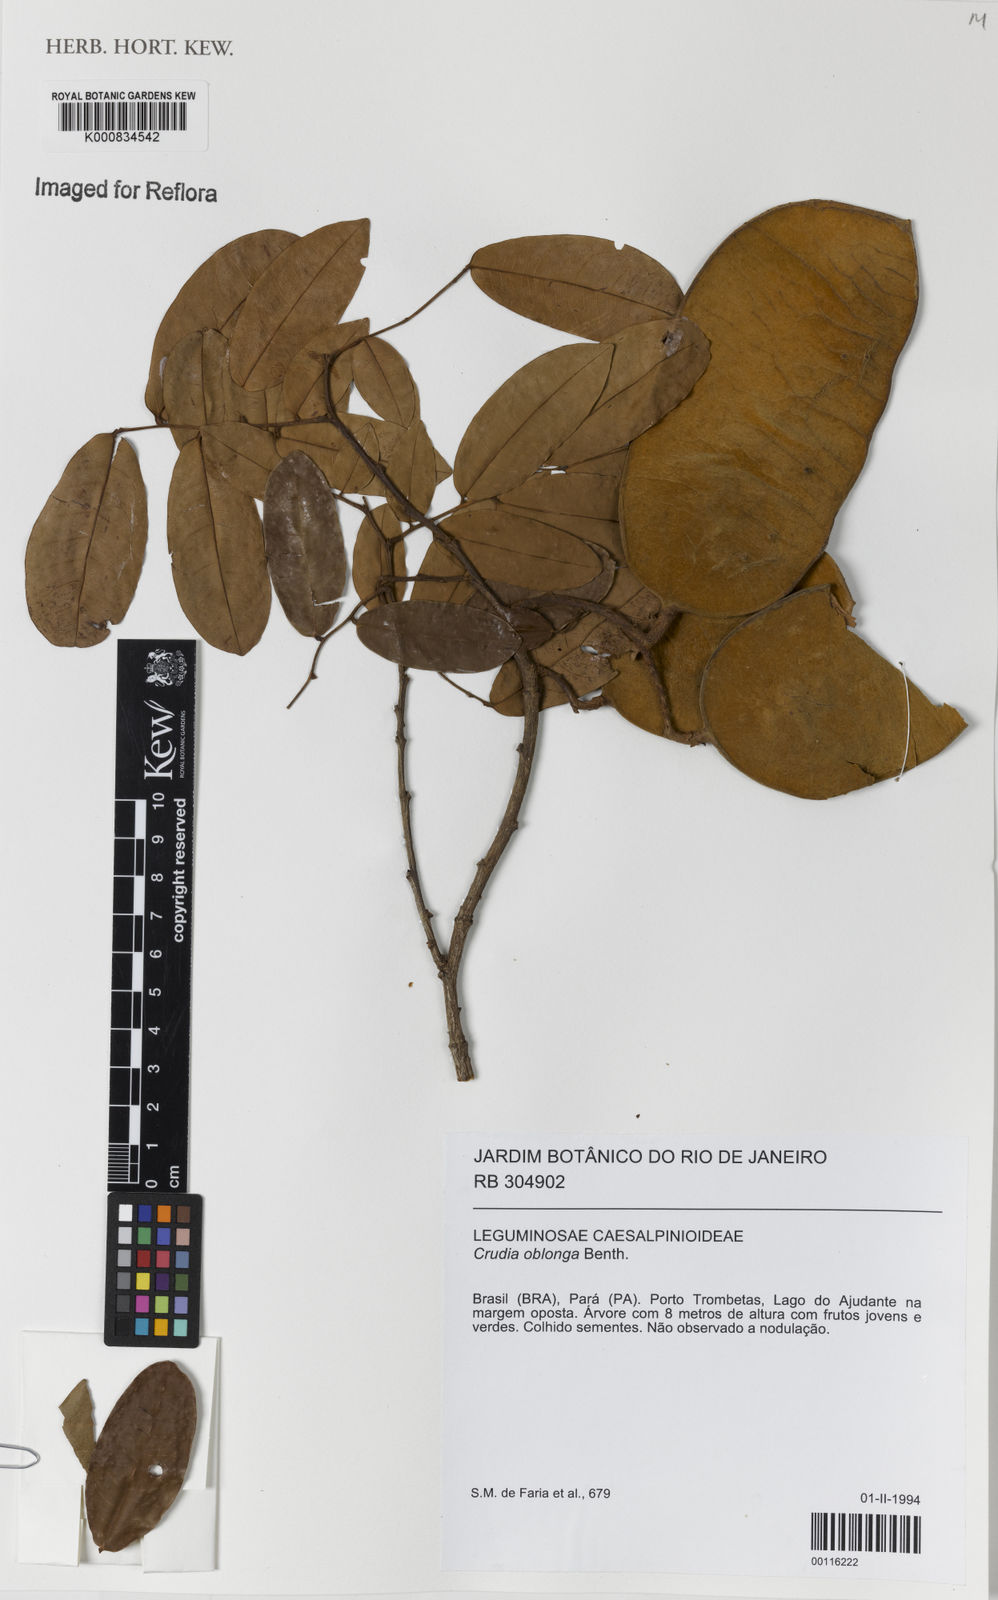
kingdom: Plantae
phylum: Tracheophyta
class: Magnoliopsida
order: Fabales
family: Fabaceae
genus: Crudia
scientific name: Crudia glaberrima
